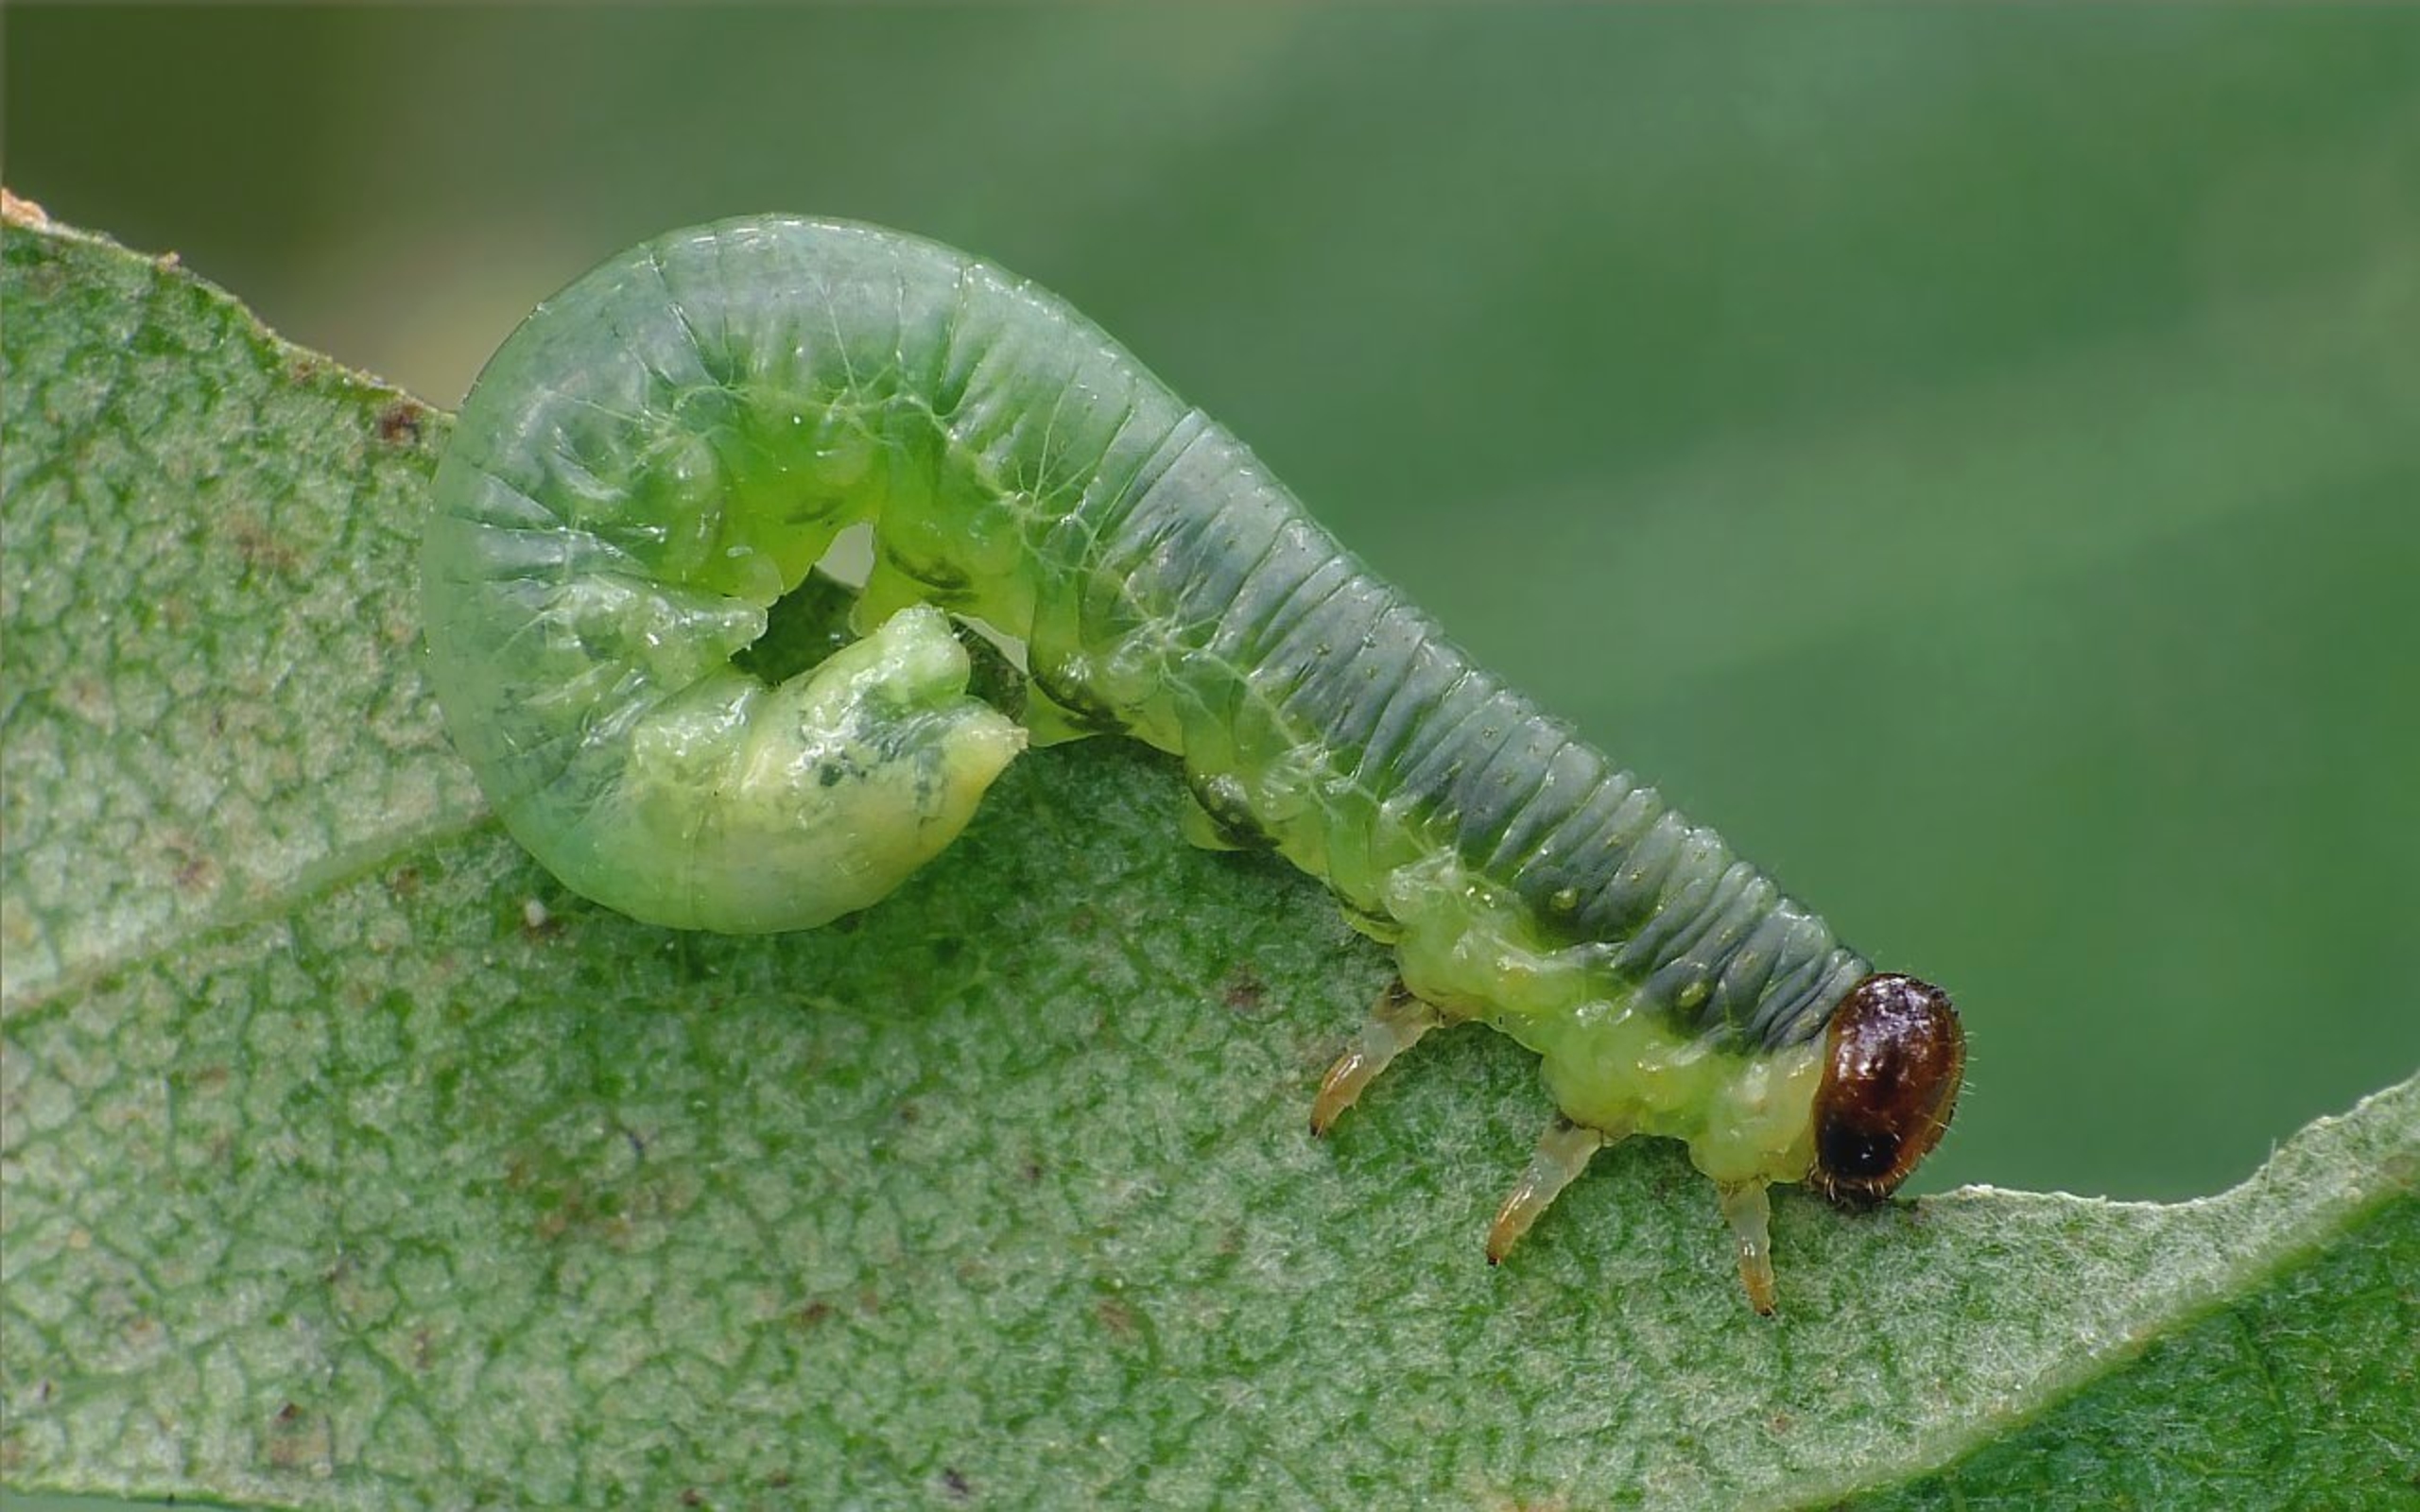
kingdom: Animalia
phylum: Arthropoda
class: Insecta
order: Hymenoptera
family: Tenthredinidae
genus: Hemichroa
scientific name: Hemichroa australis
